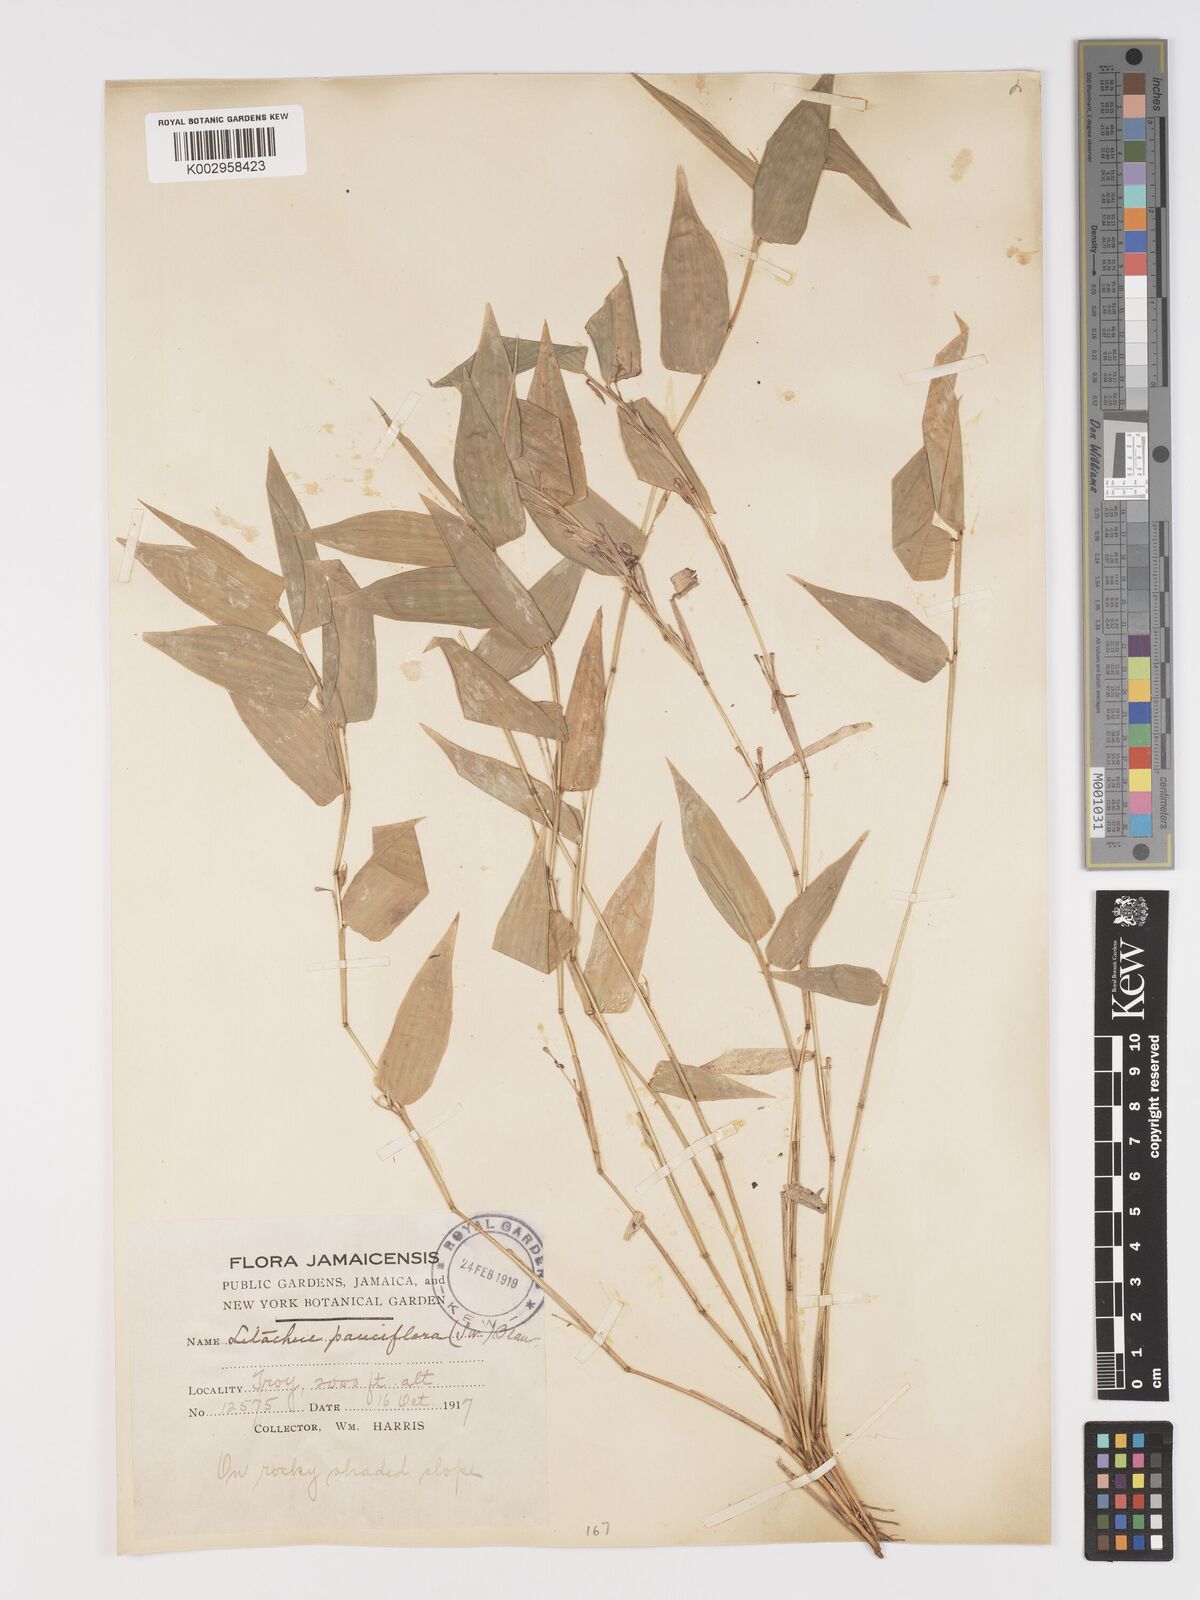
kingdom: Plantae
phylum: Tracheophyta
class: Liliopsida
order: Poales
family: Poaceae
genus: Lithachne
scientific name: Lithachne pauciflora
